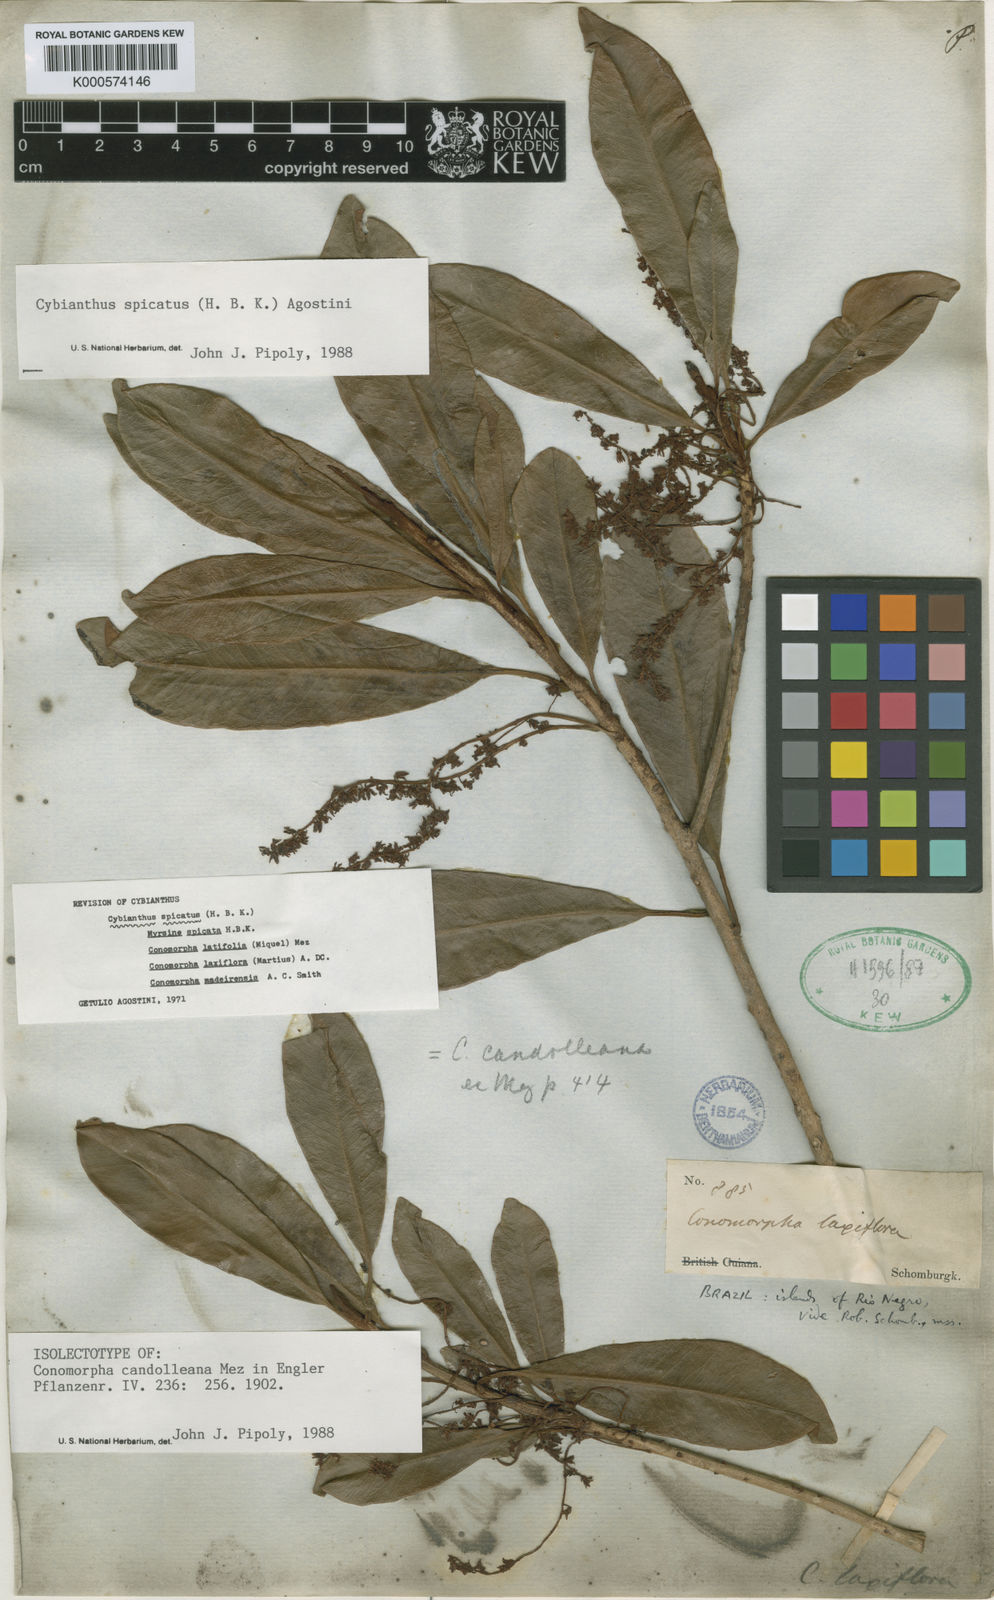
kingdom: Plantae
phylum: Tracheophyta
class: Magnoliopsida
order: Ericales
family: Primulaceae
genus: Cybianthus
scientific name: Cybianthus spicatus
